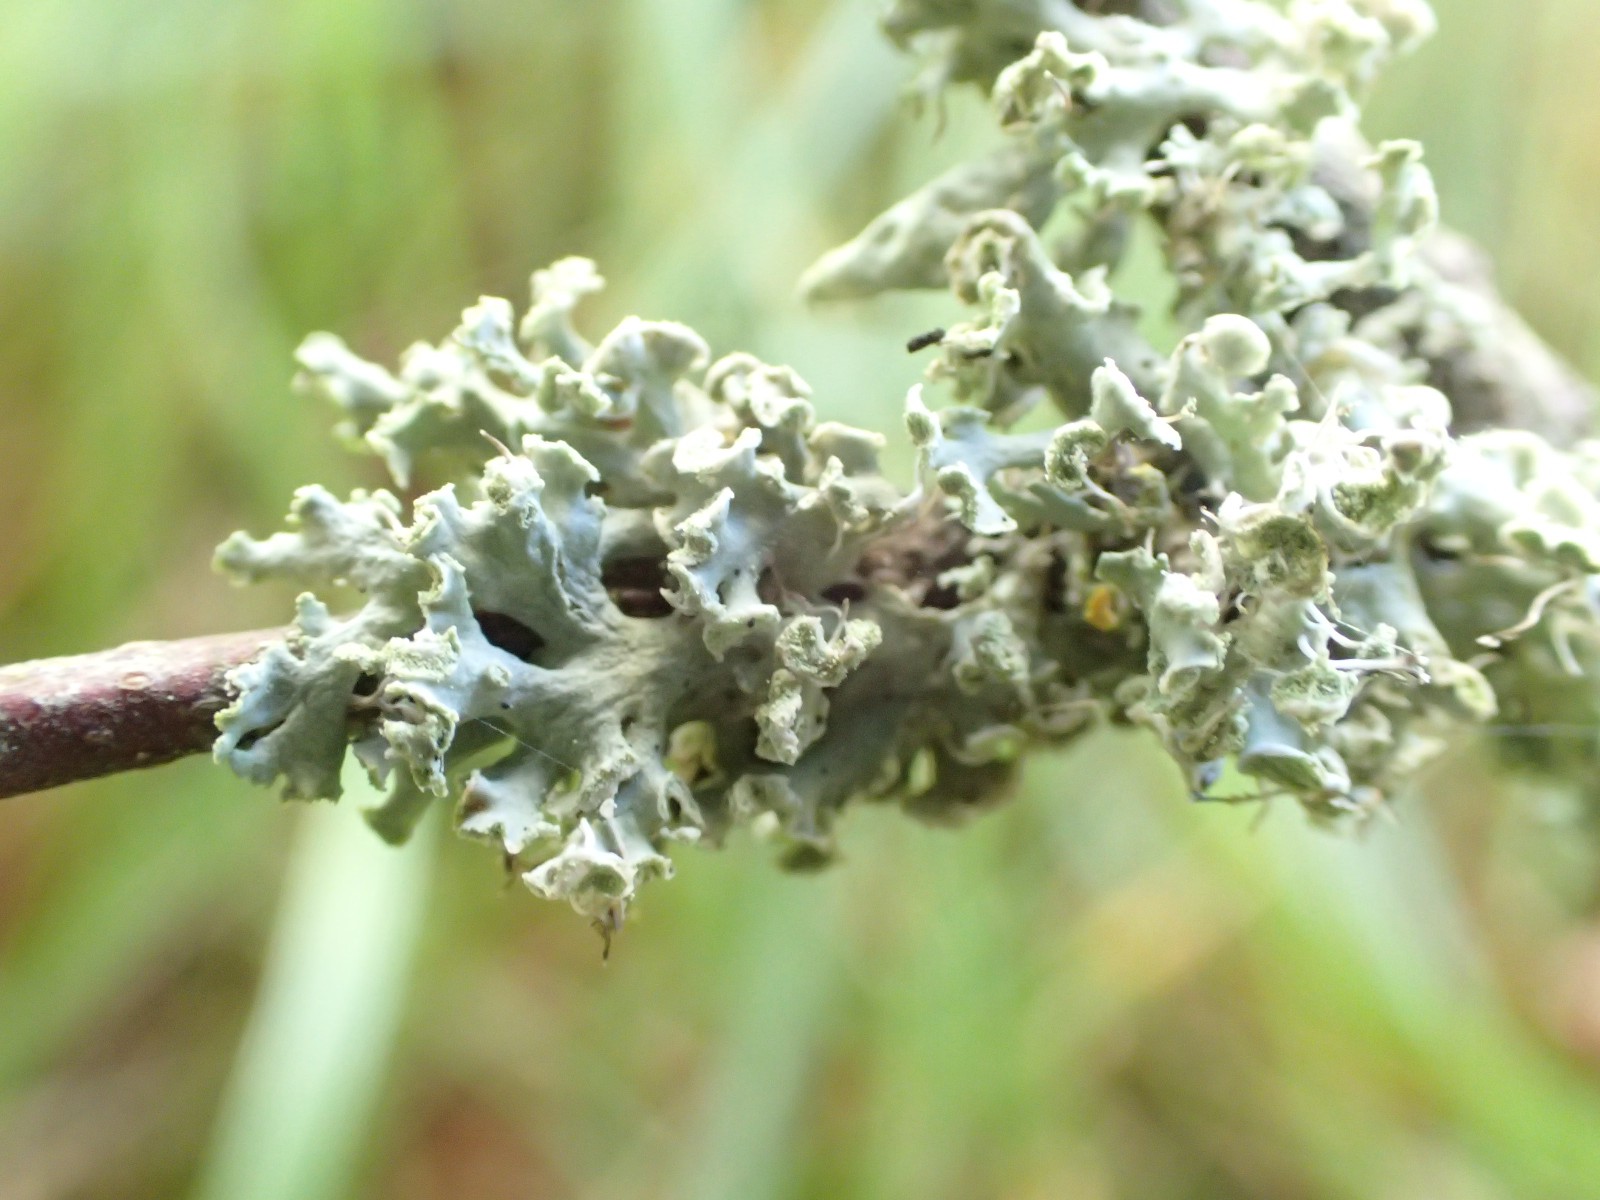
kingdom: Fungi
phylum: Ascomycota
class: Lecanoromycetes
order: Caliciales
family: Physciaceae
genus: Physcia
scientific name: Physcia tenella
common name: spæd rosetlav
